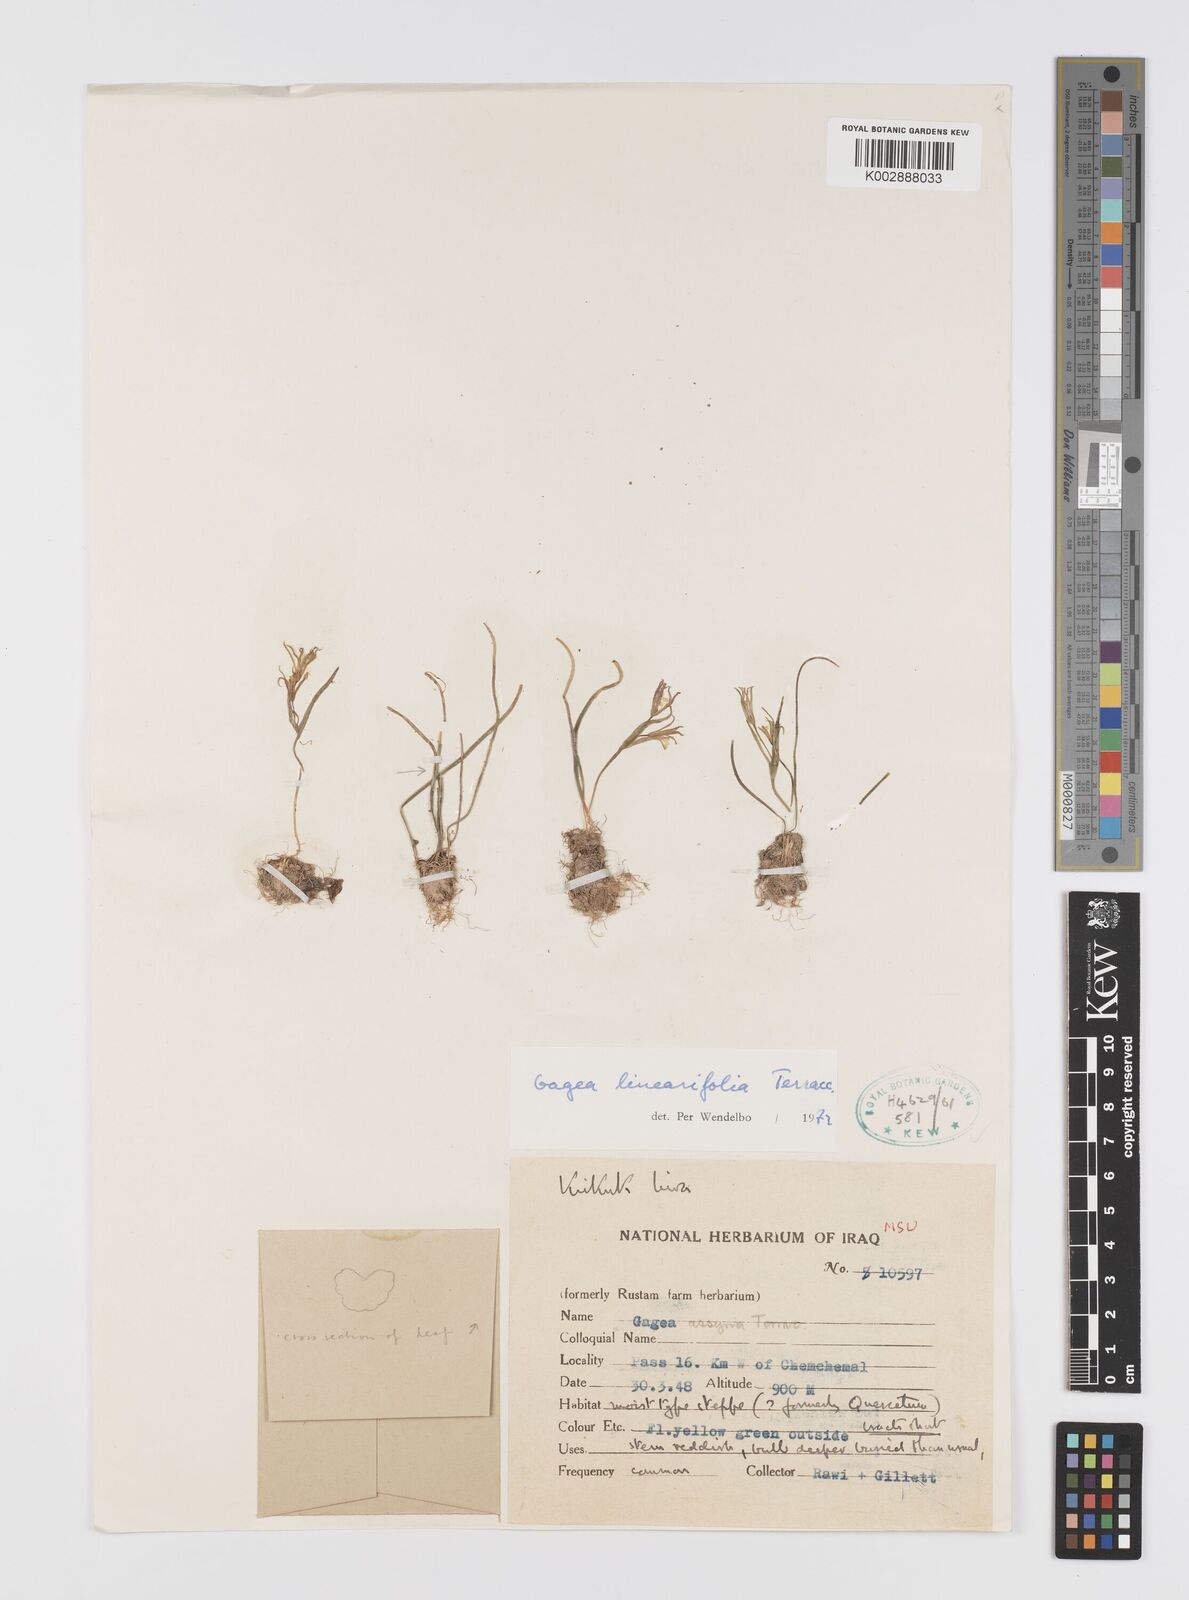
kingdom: Plantae
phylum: Tracheophyta
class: Liliopsida
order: Liliales
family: Liliaceae
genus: Gagea
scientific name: Gagea luteoides
